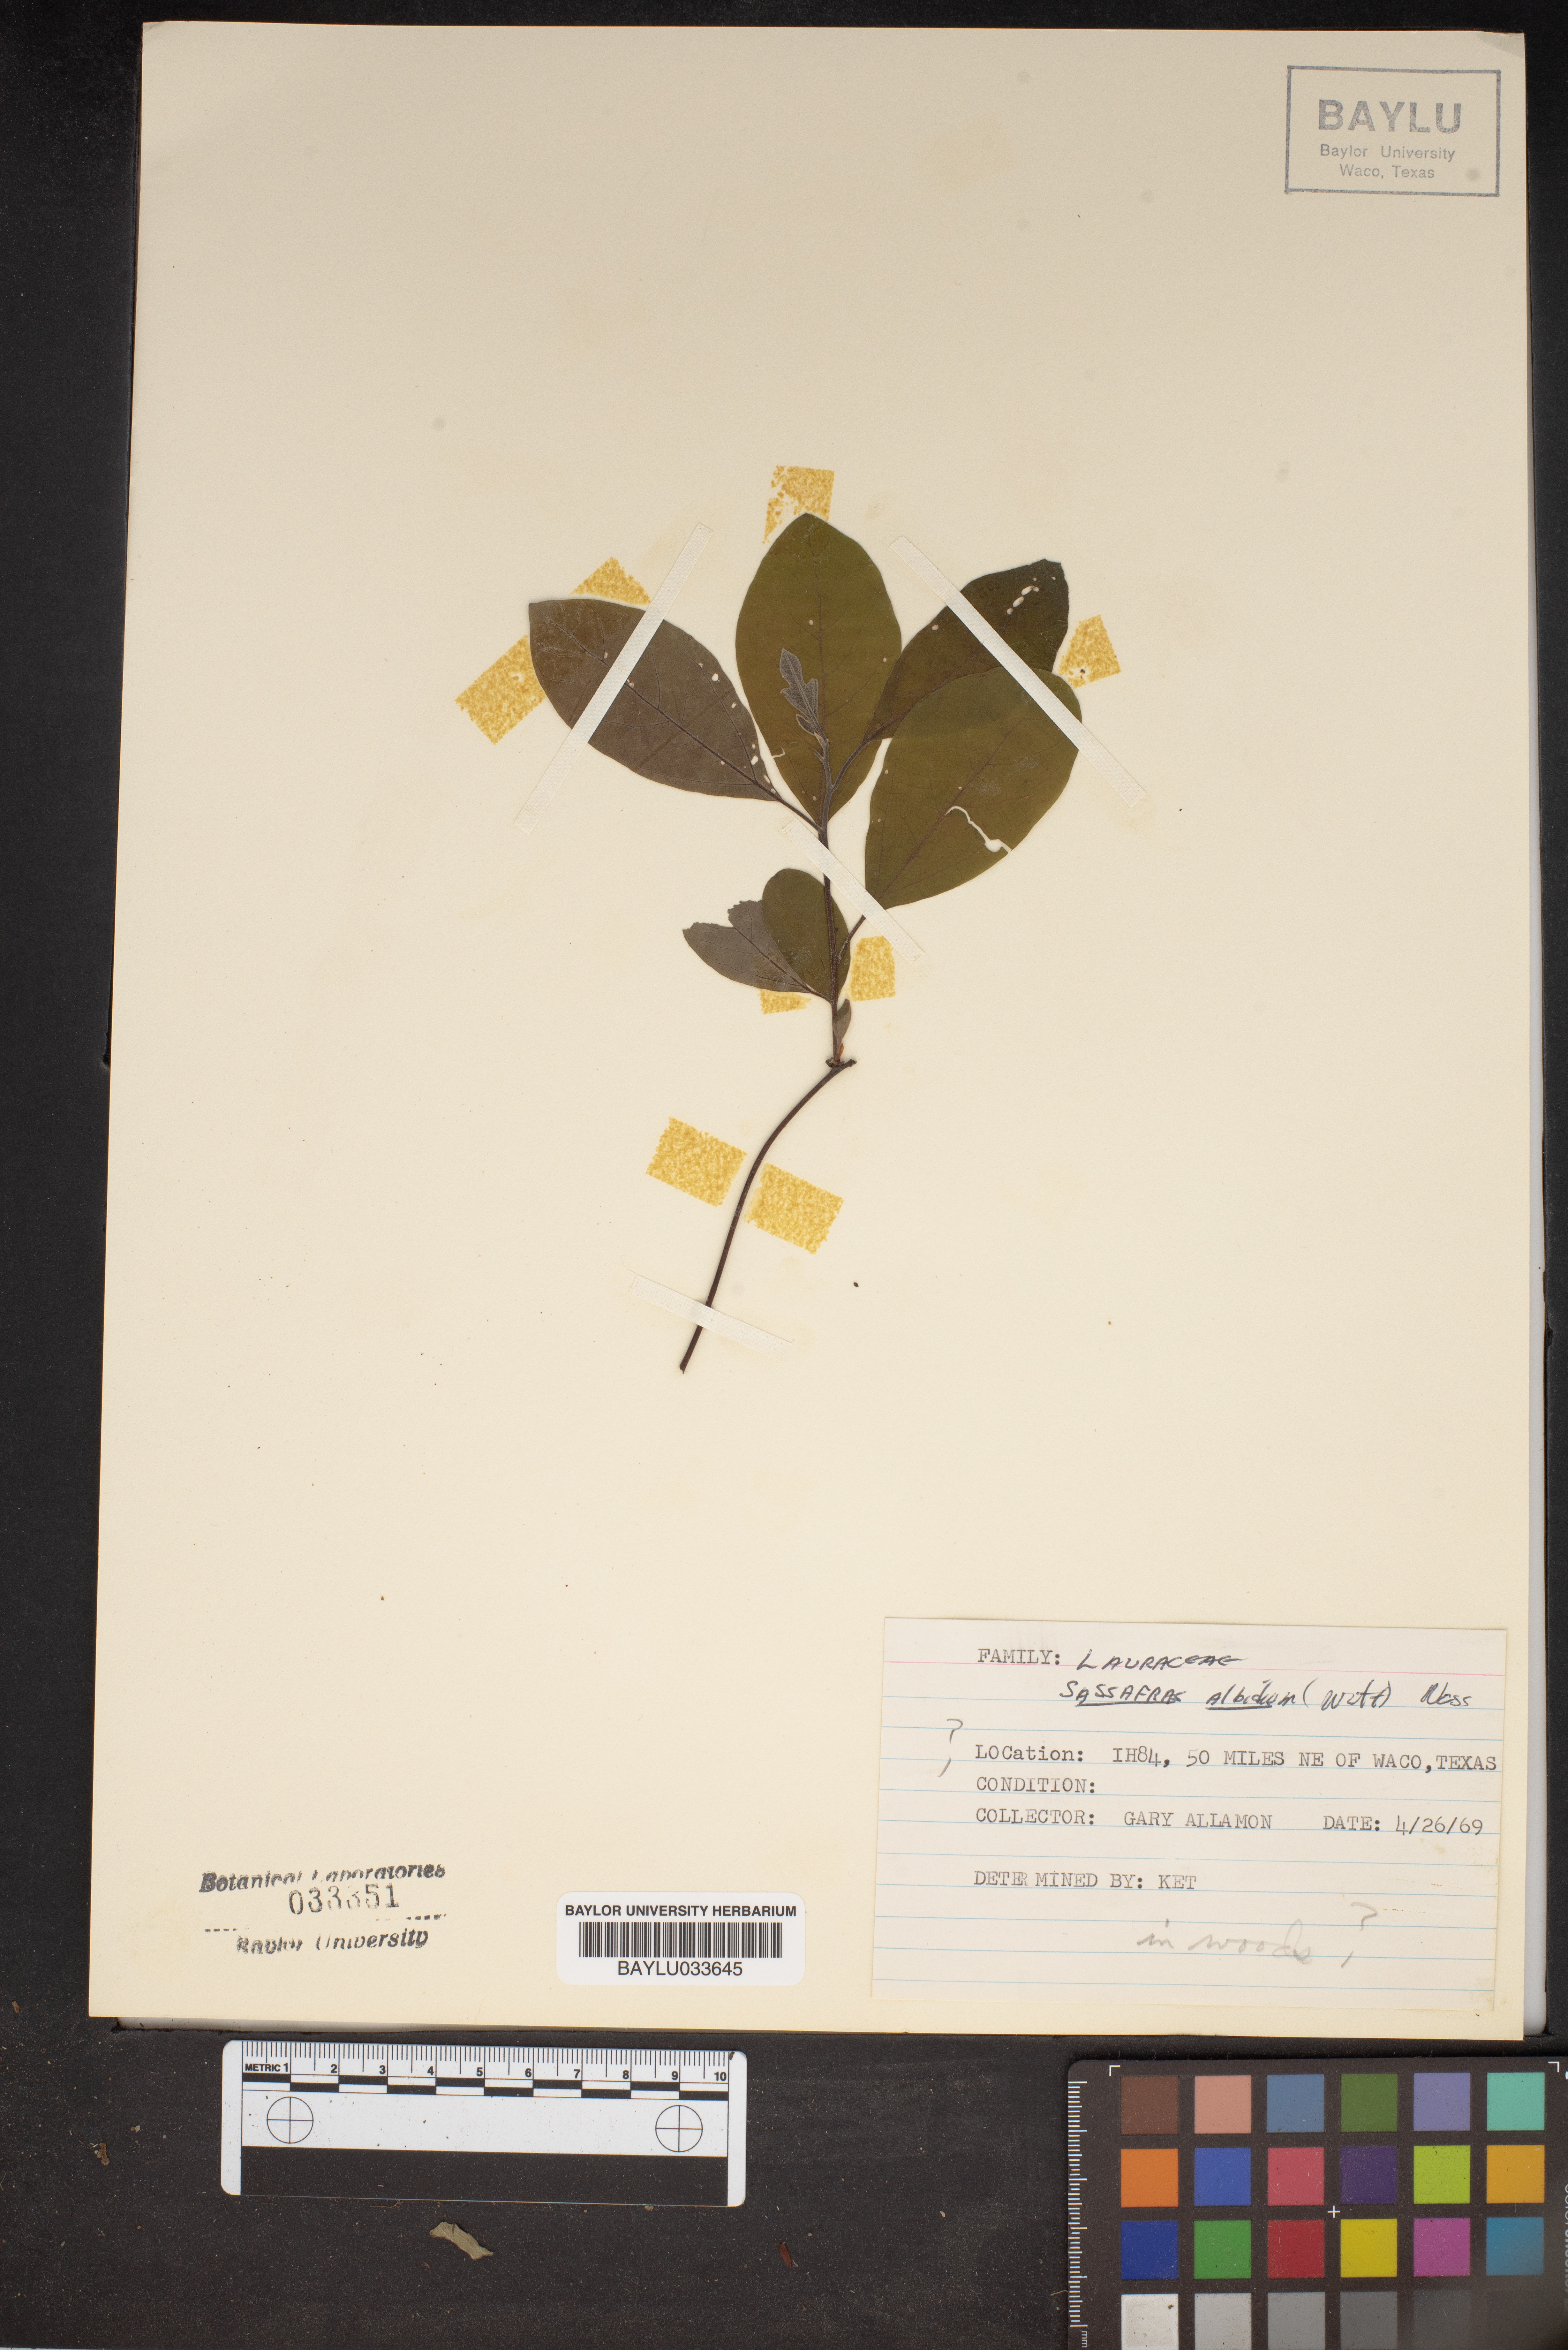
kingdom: Plantae
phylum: Tracheophyta
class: Magnoliopsida
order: Laurales
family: Lauraceae
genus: Sassafras
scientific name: Sassafras albidum
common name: Sassafras
